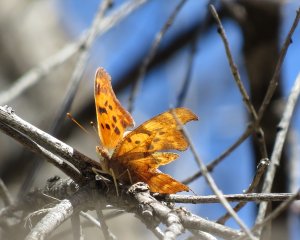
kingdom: Animalia
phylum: Arthropoda
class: Insecta
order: Lepidoptera
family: Nymphalidae
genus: Polygonia
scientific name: Polygonia gracilis
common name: Hoary Comma
